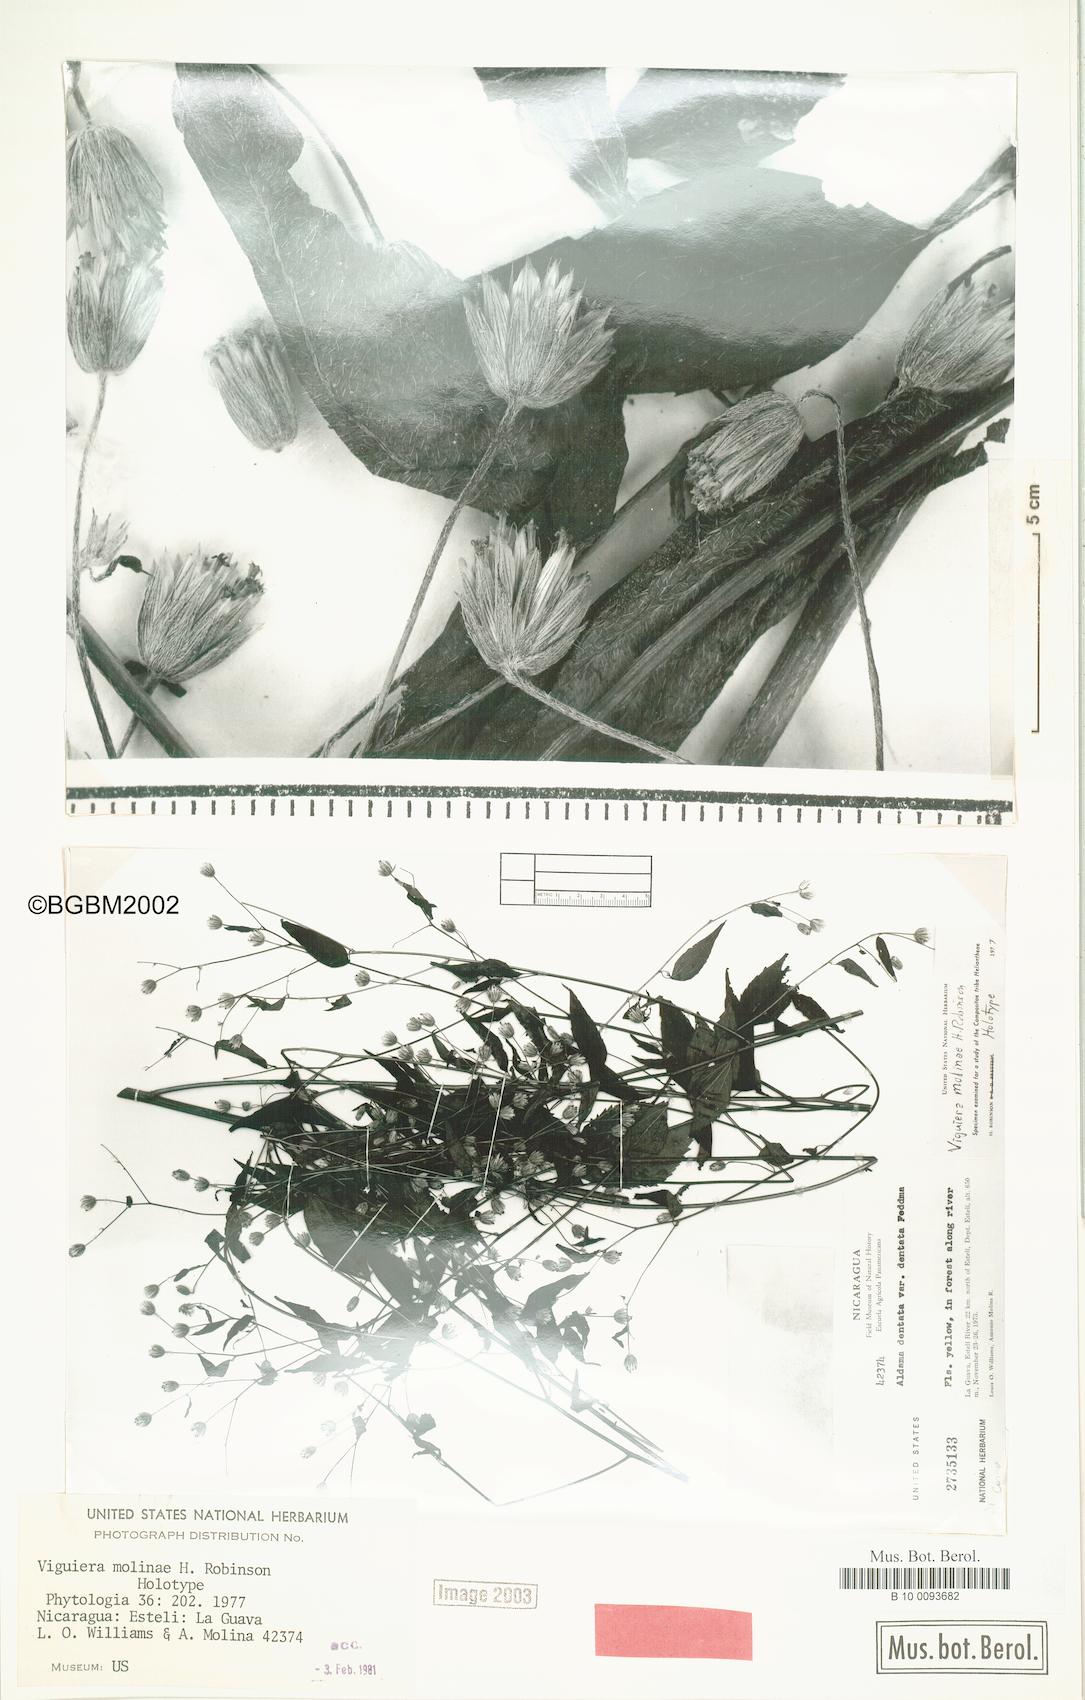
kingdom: Plantae
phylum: Tracheophyta
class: Magnoliopsida
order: Asterales
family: Asteraceae
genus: Hymenostephium
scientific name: Hymenostephium molinae
